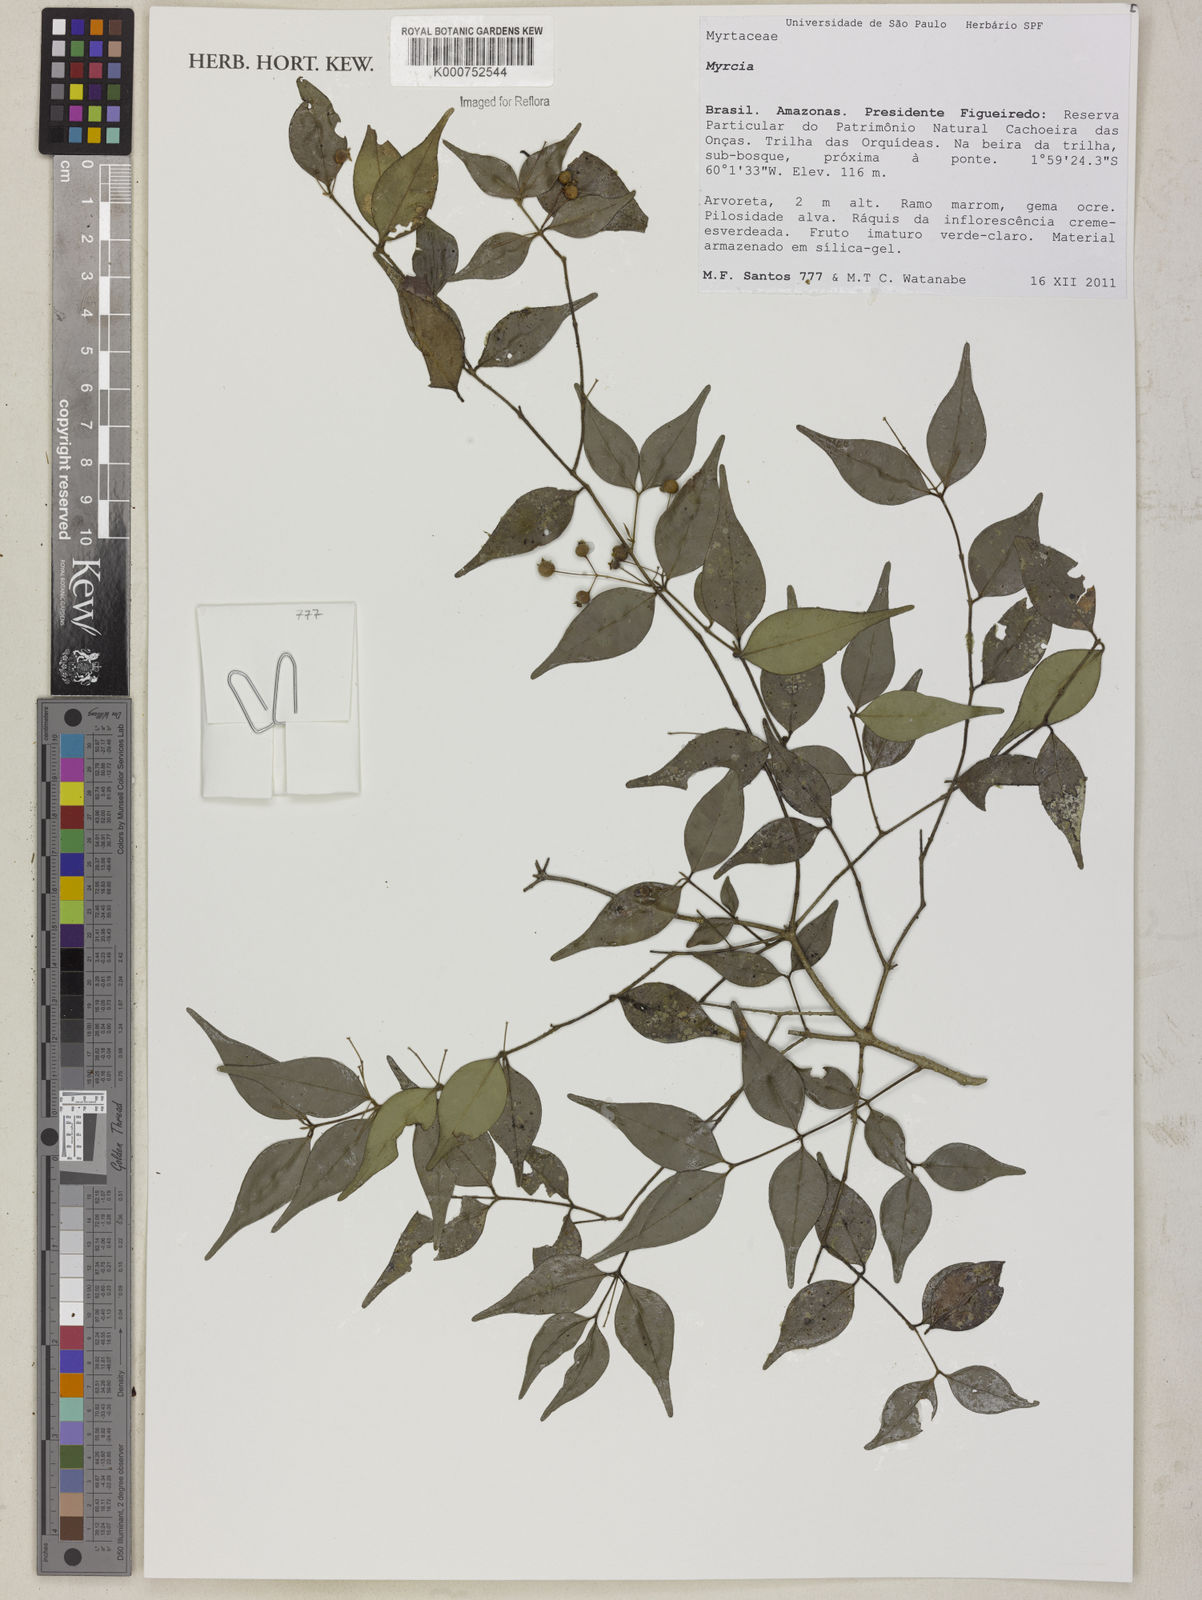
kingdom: Plantae
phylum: Tracheophyta
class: Magnoliopsida
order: Myrtales
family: Myrtaceae
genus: Myrcia
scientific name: Myrcia servata
